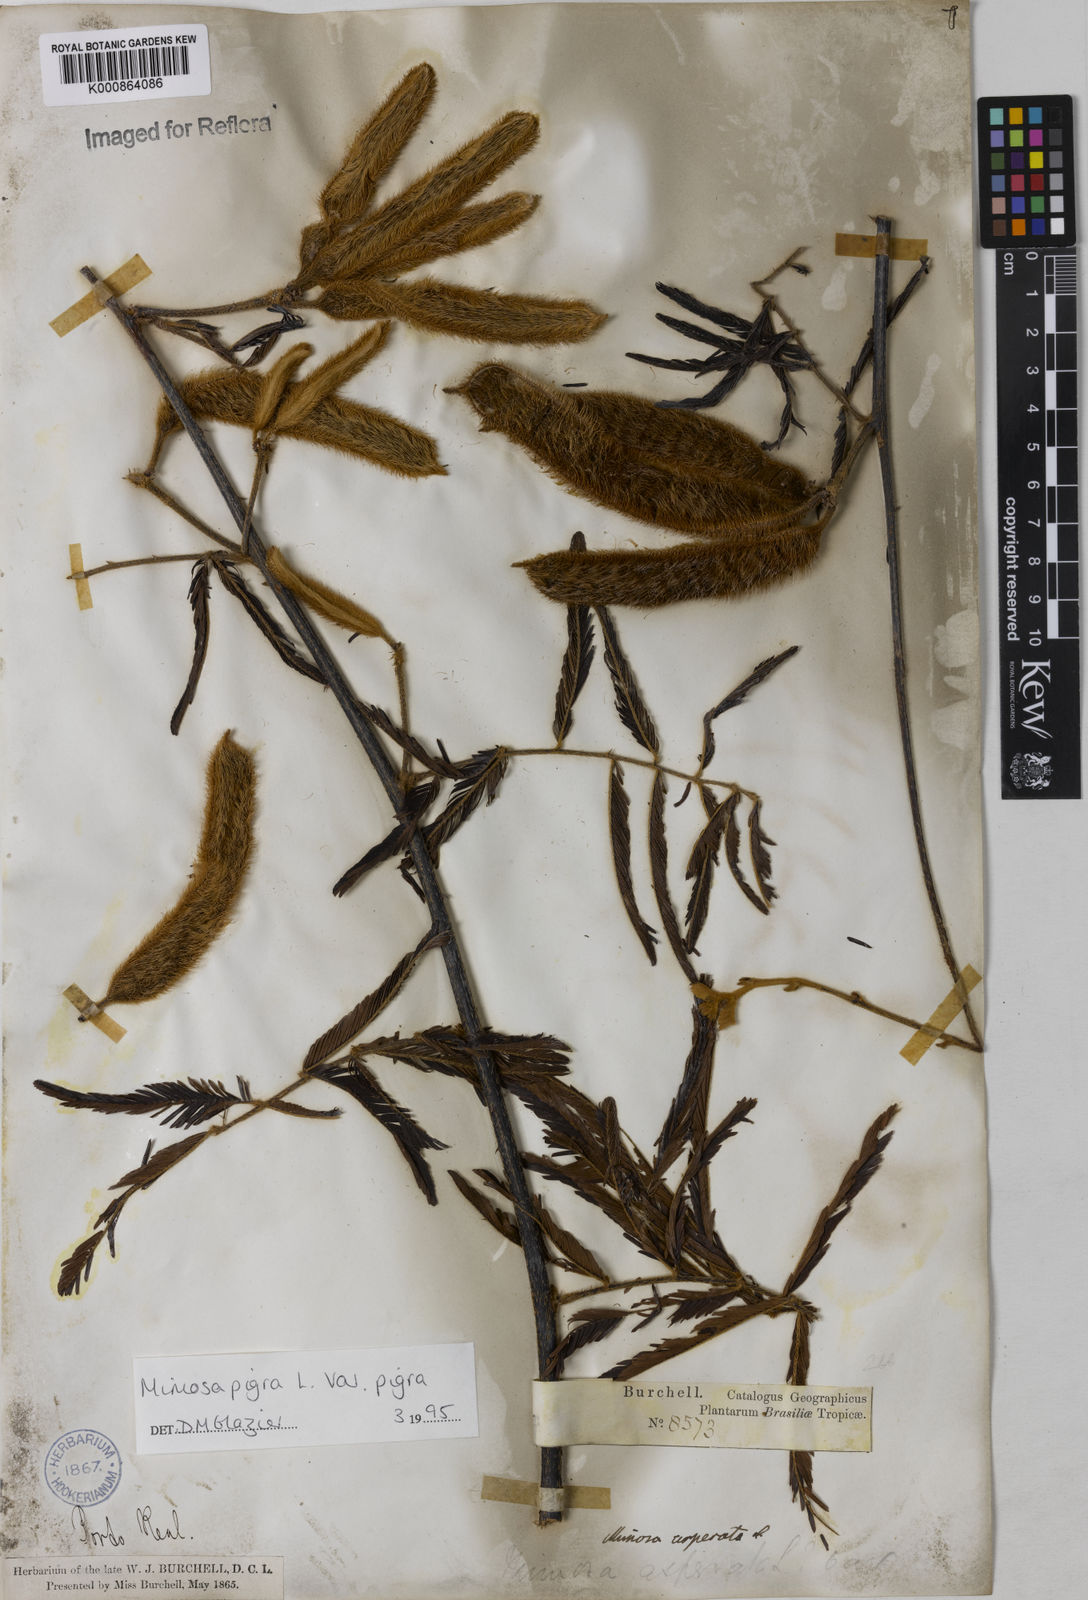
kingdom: Plantae
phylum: Tracheophyta
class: Magnoliopsida
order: Fabales
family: Fabaceae
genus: Mimosa
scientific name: Mimosa pigra
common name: Black mimosa
